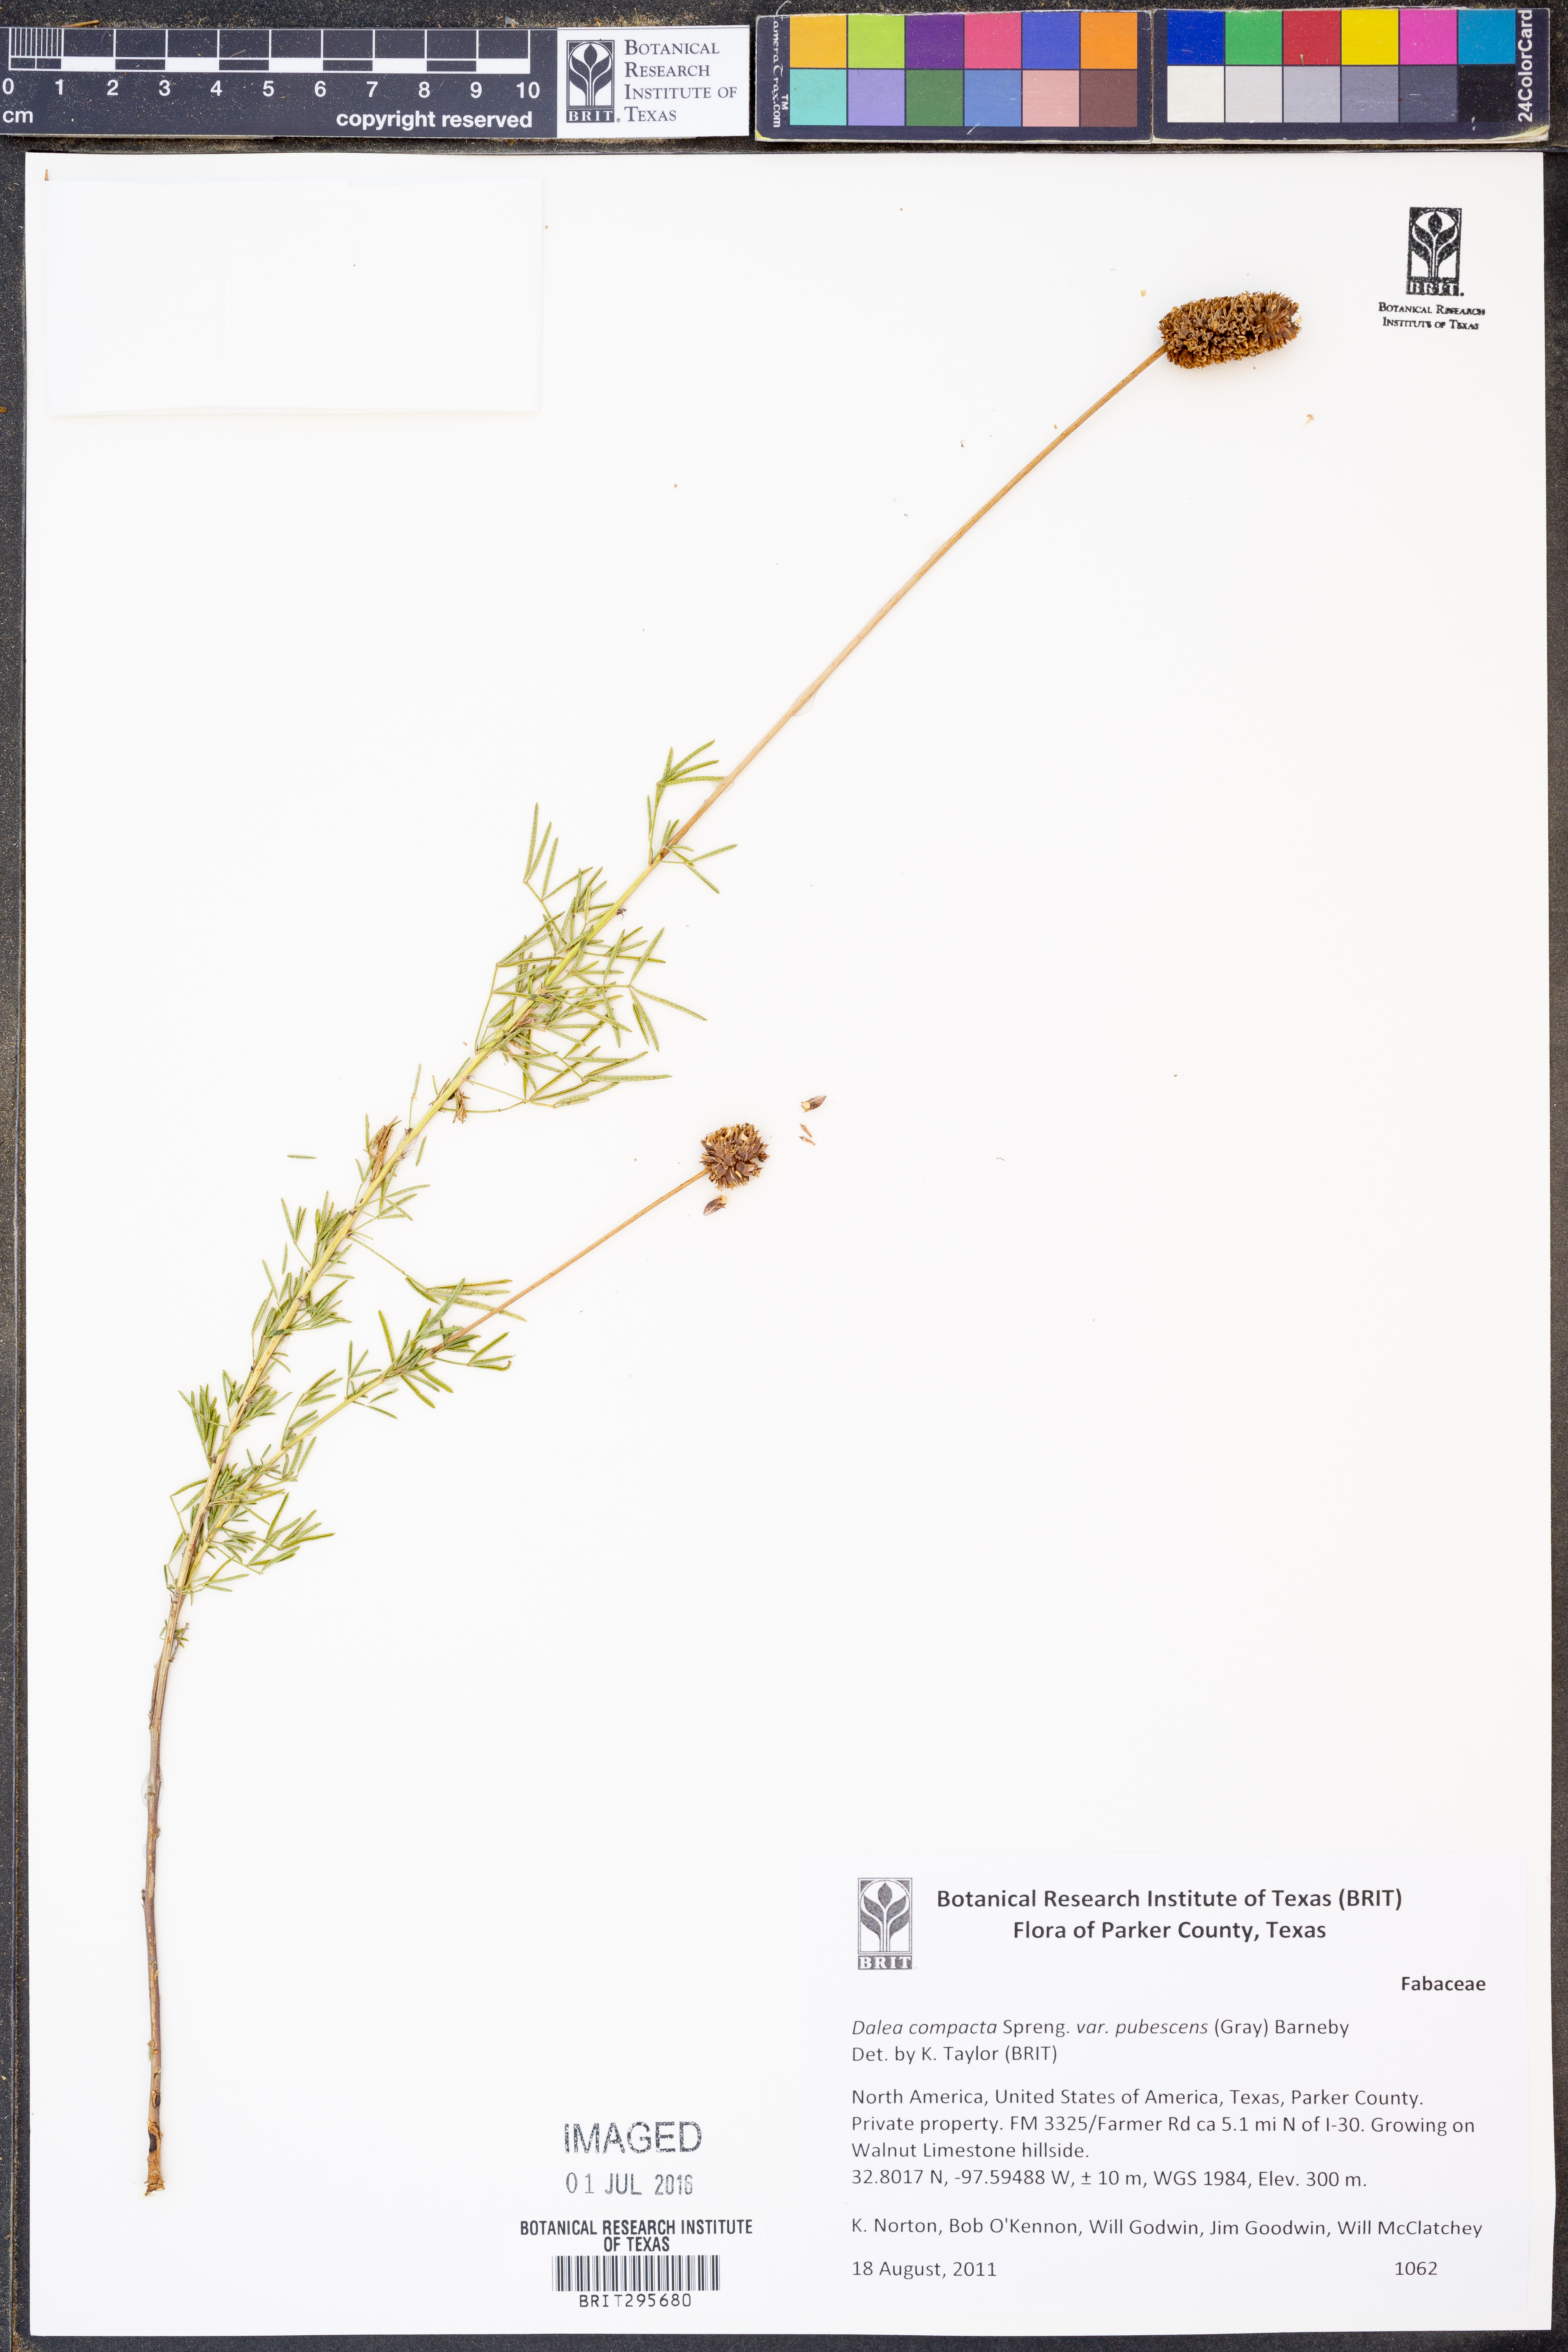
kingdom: Plantae
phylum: Tracheophyta
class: Magnoliopsida
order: Fabales
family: Fabaceae
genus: Dalea
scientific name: Dalea compacta
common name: Compact prairie-clover
